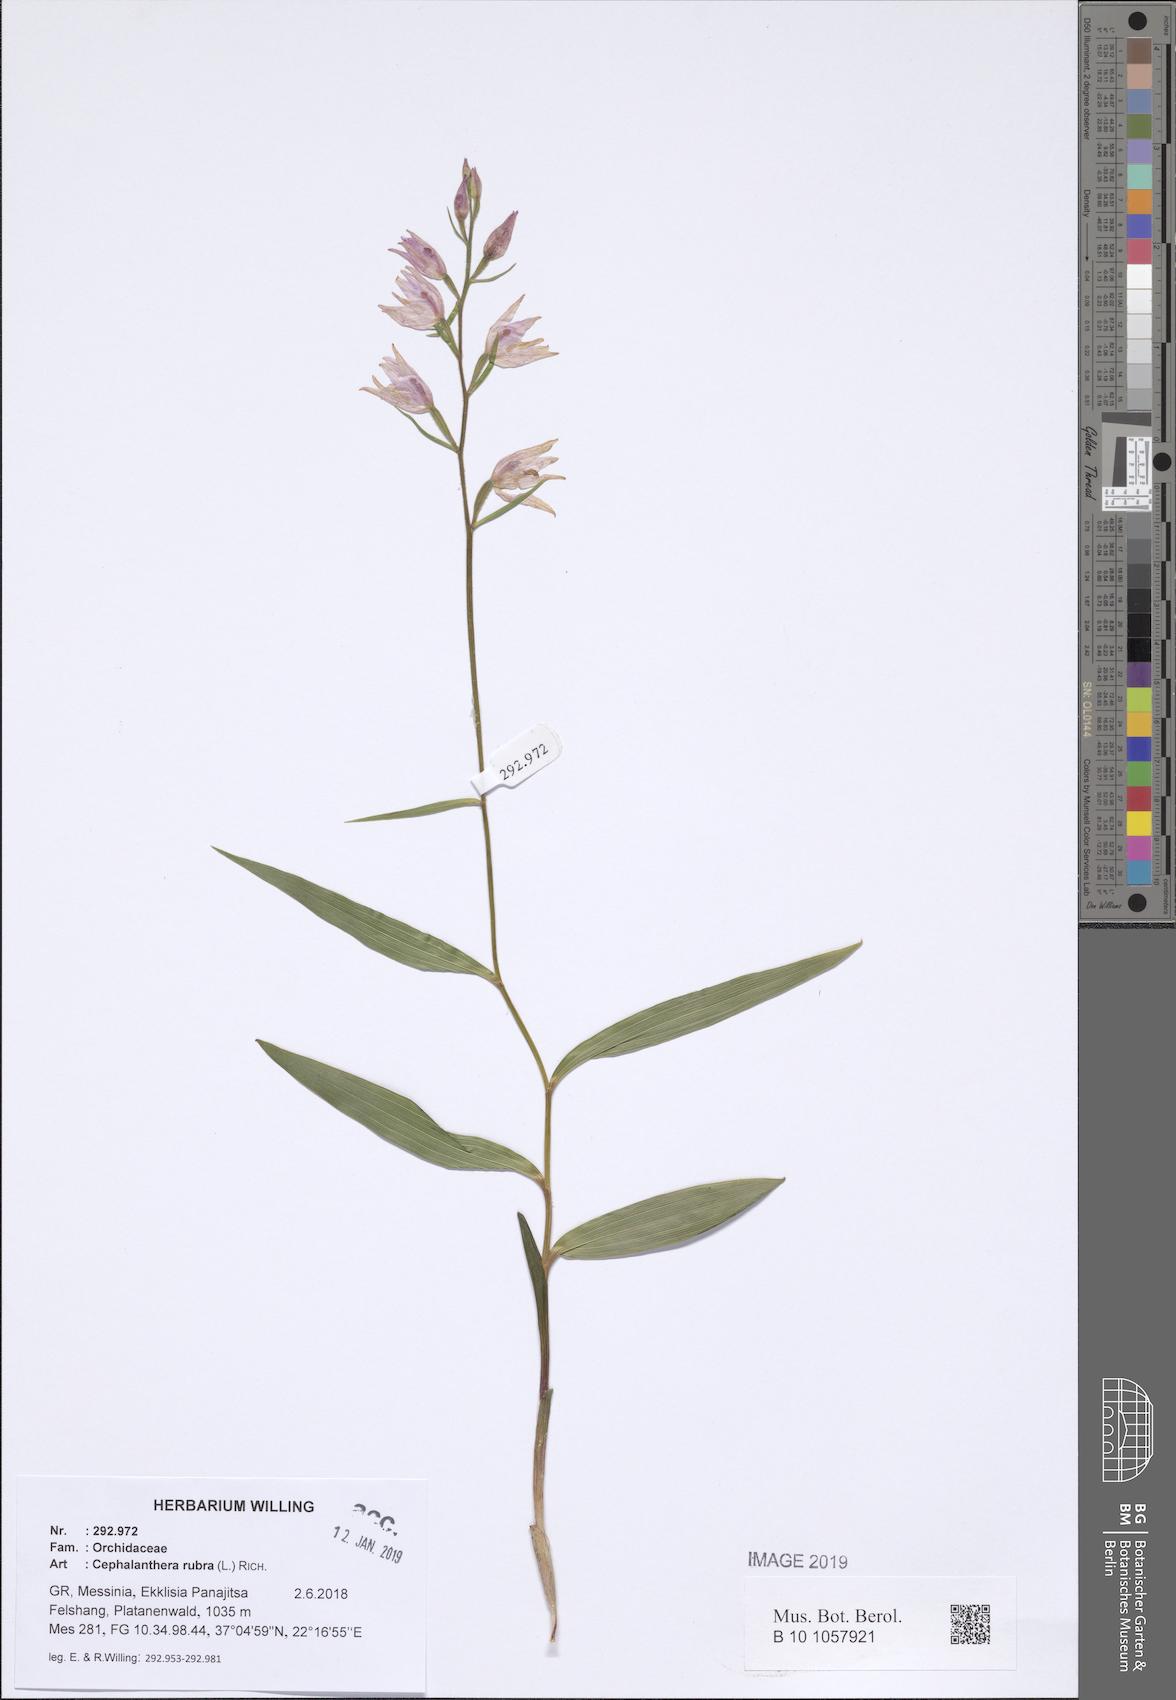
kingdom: Plantae
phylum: Tracheophyta
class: Liliopsida
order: Asparagales
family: Orchidaceae
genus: Cephalanthera
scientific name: Cephalanthera rubra
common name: Red helleborine
